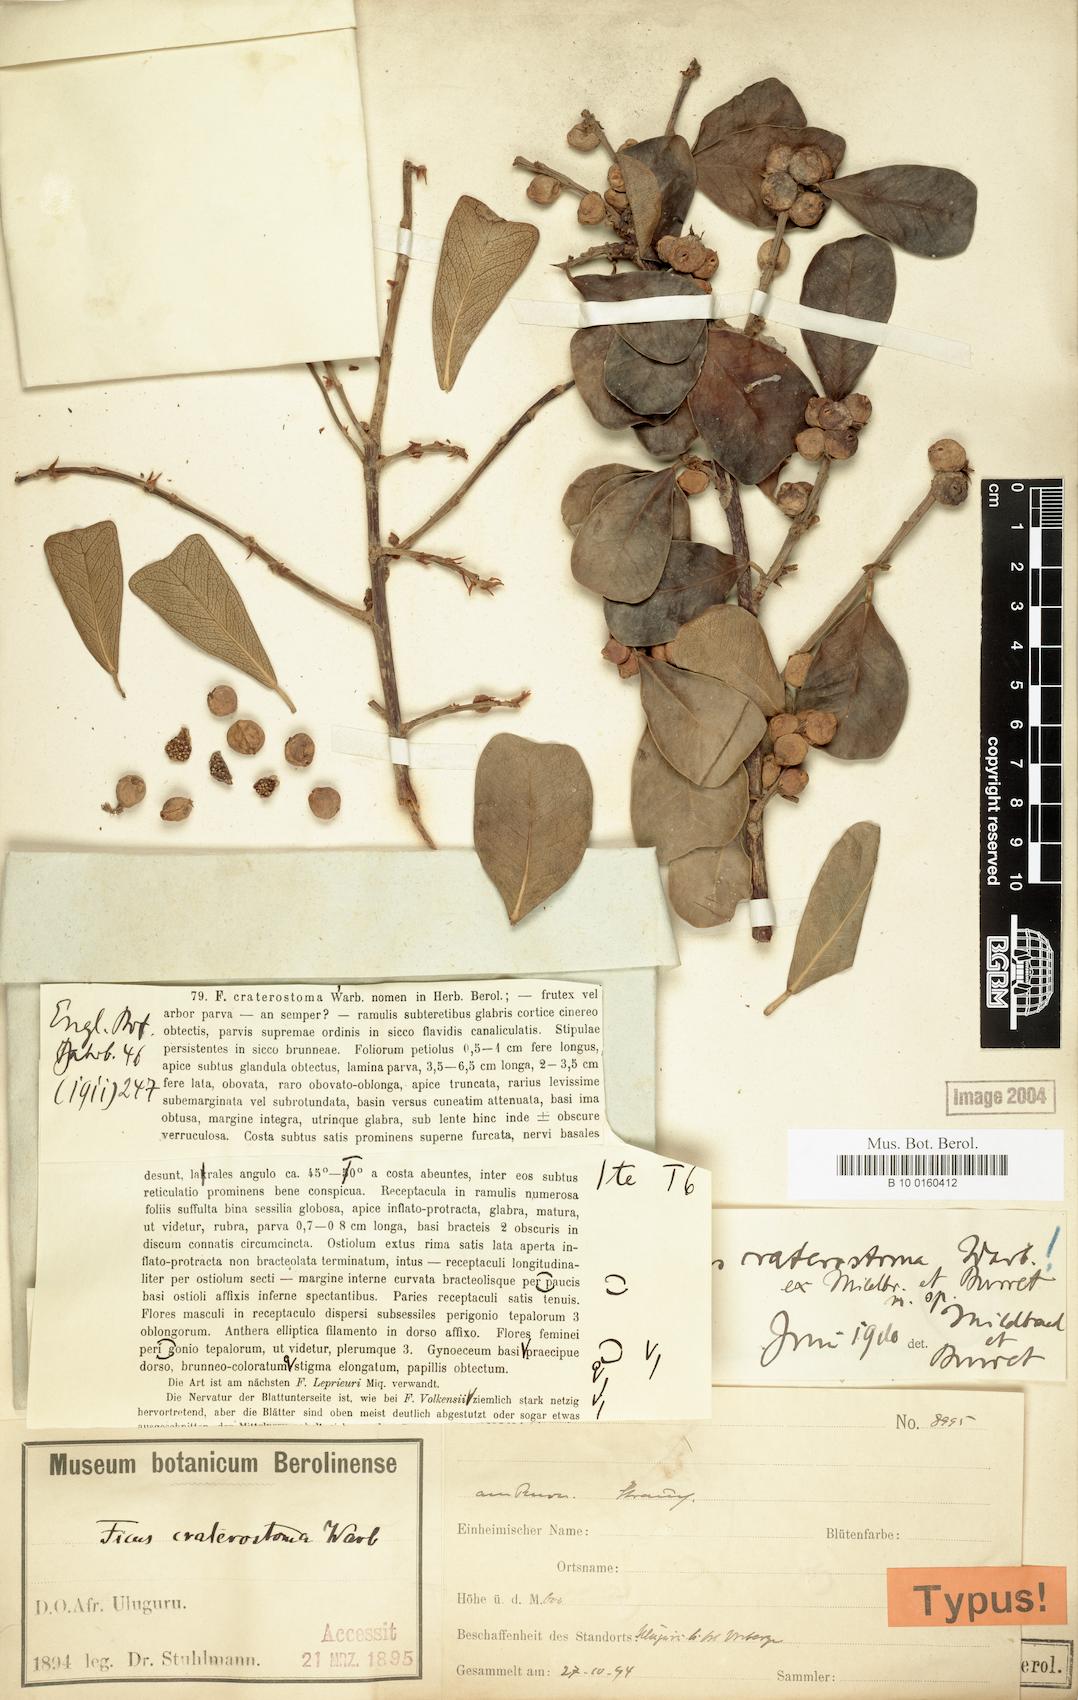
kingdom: Plantae
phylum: Tracheophyta
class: Magnoliopsida
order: Rosales
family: Moraceae
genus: Ficus
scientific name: Ficus craterostoma
